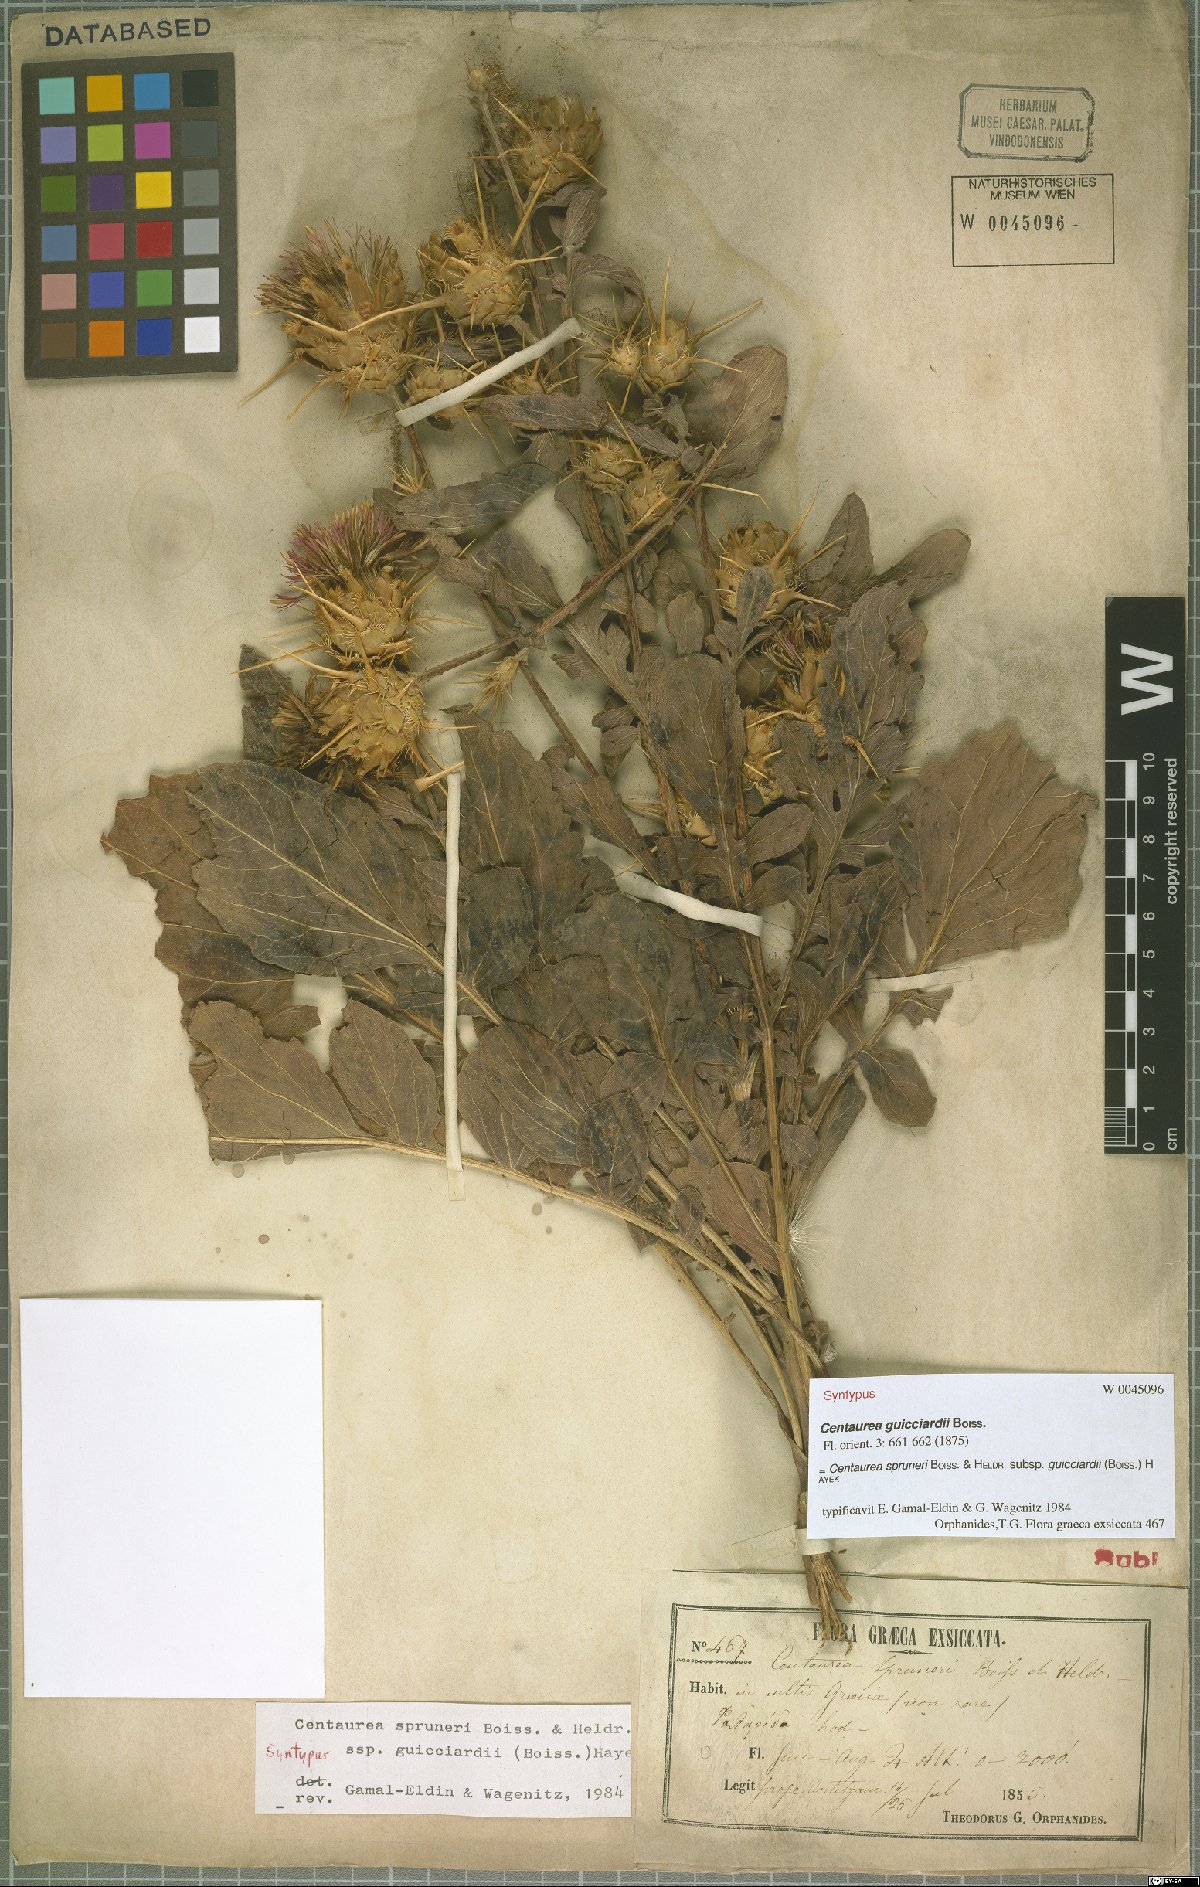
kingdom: Plantae
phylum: Tracheophyta
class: Magnoliopsida
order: Asterales
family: Asteraceae
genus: Centaurea
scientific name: Centaurea spruneri
